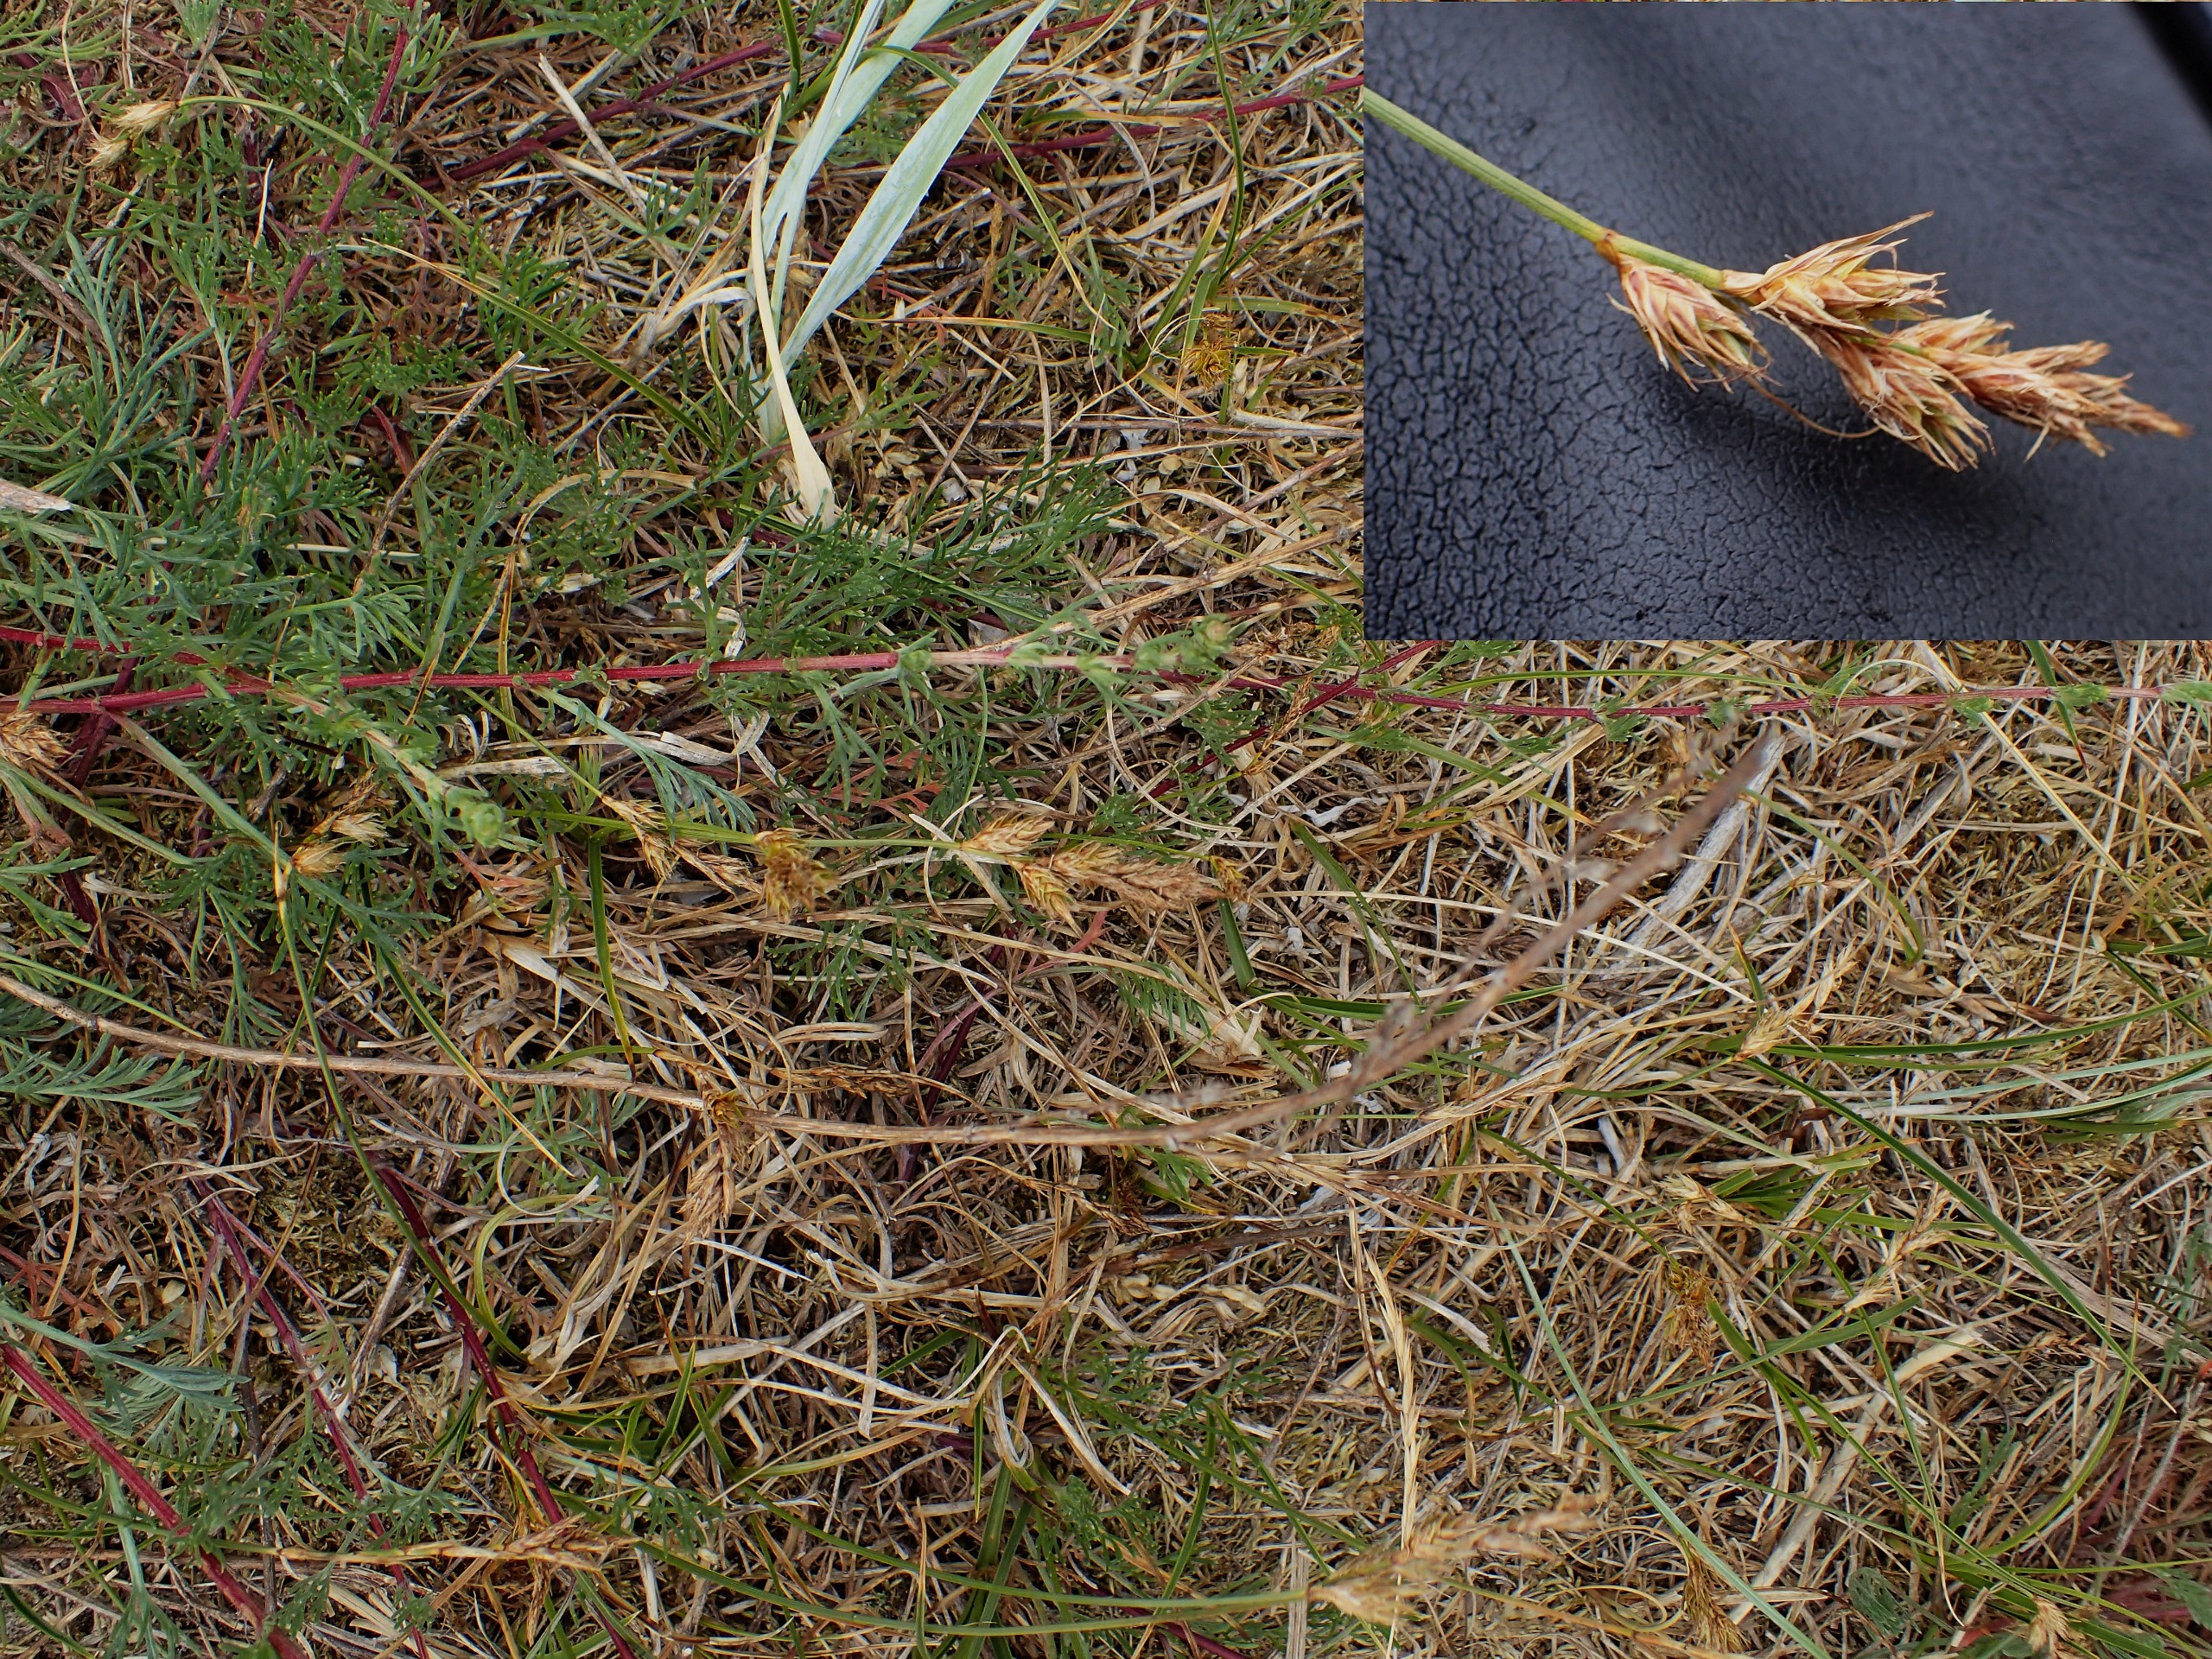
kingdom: Plantae
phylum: Tracheophyta
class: Liliopsida
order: Poales
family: Cyperaceae
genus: Carex
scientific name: Carex arenaria
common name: Sand-star
